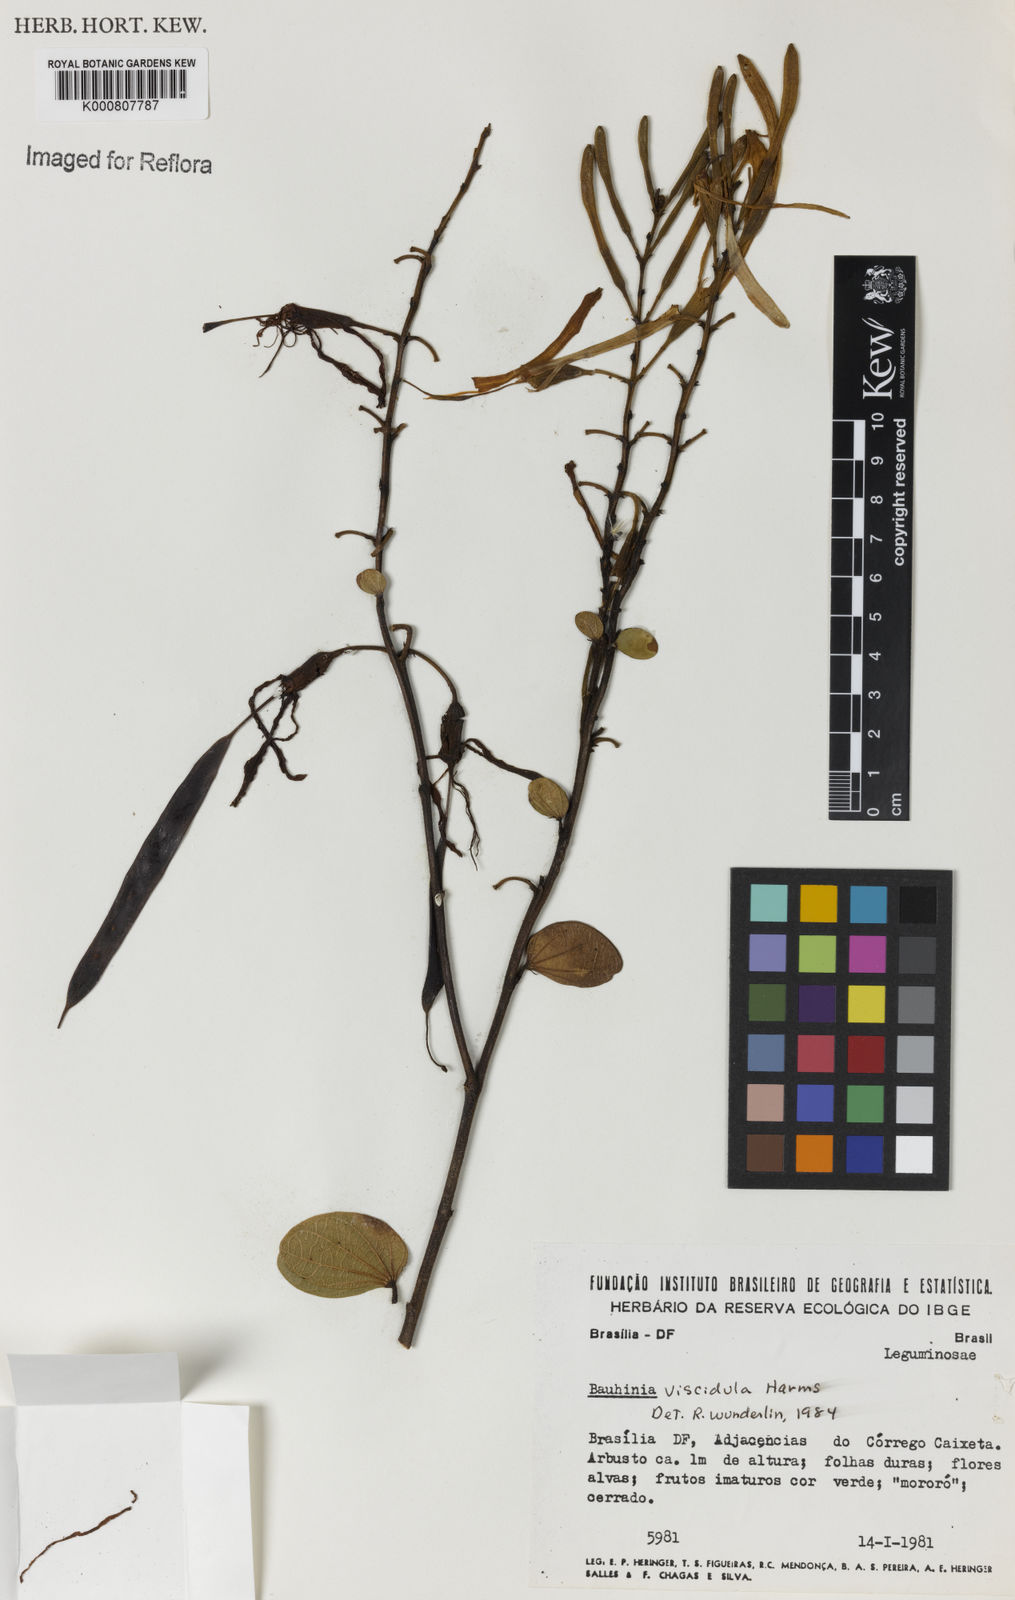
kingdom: Plantae
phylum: Tracheophyta
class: Magnoliopsida
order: Fabales
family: Fabaceae
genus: Bauhinia
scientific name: Bauhinia dumosa
